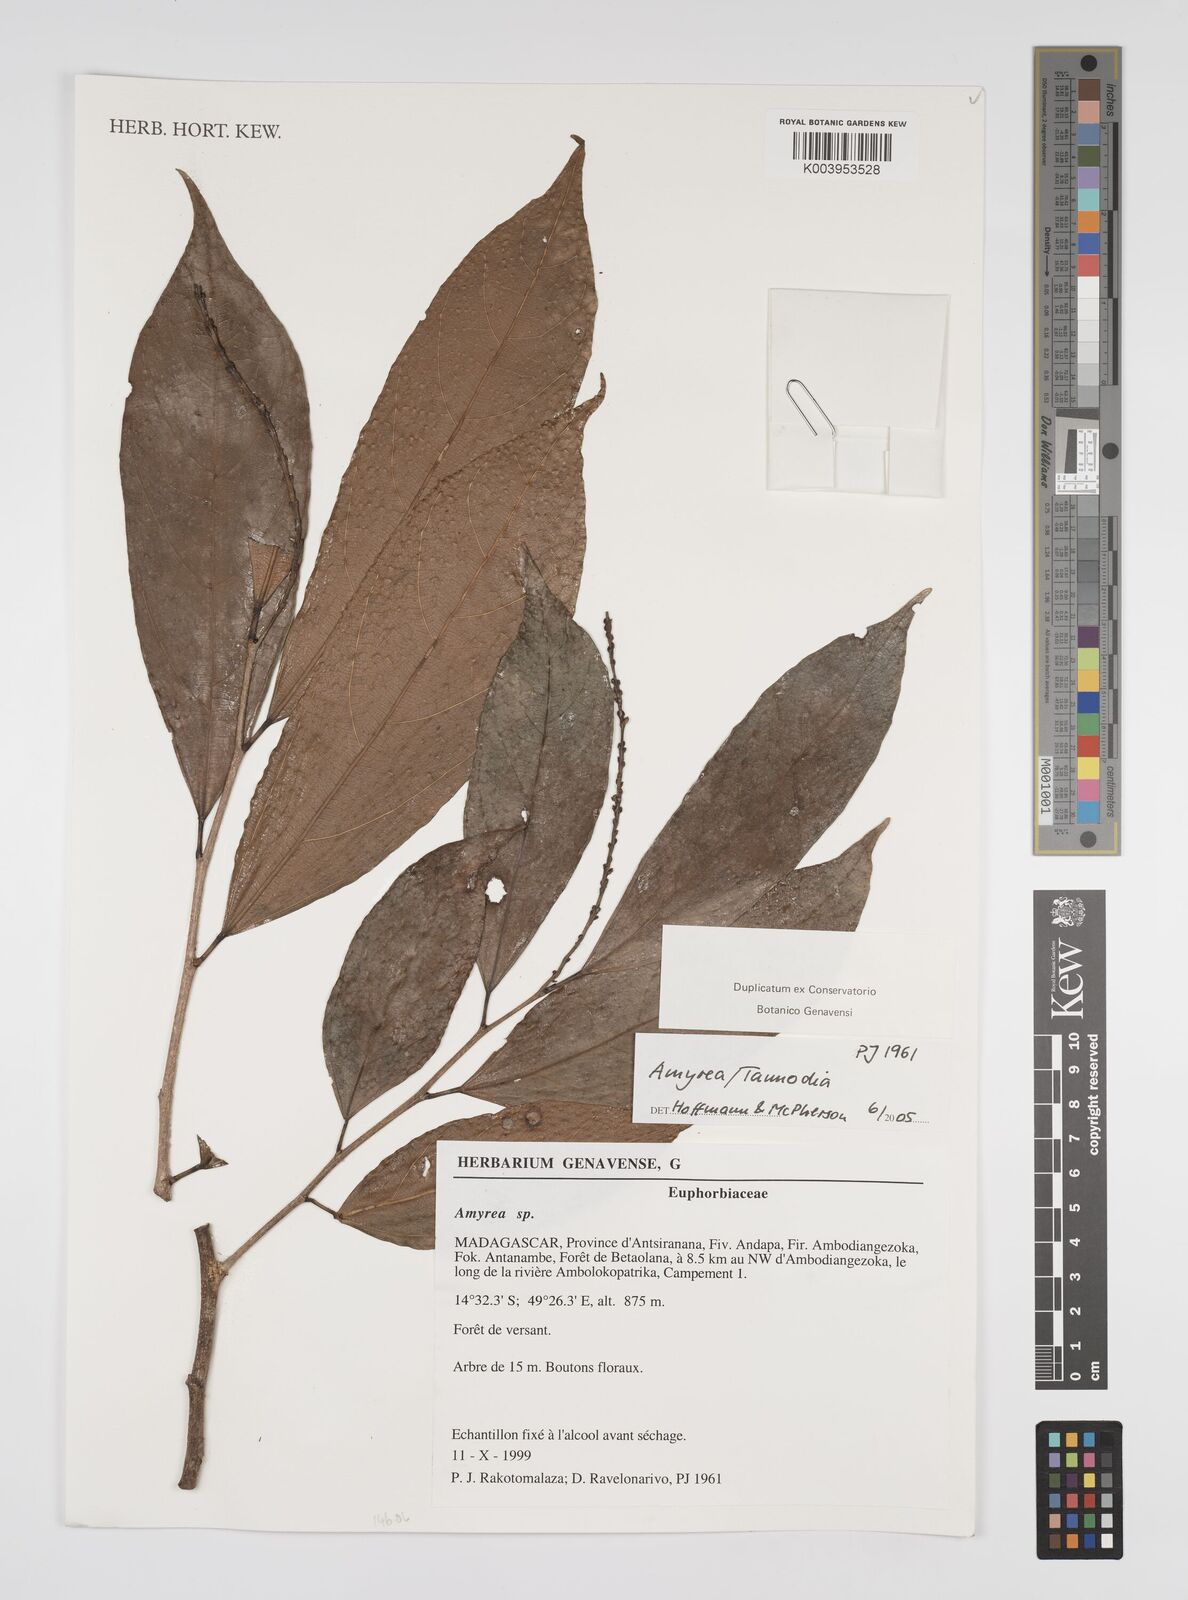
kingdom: Plantae
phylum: Tracheophyta
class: Magnoliopsida
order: Malpighiales
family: Euphorbiaceae
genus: Amyrea
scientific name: Amyrea
